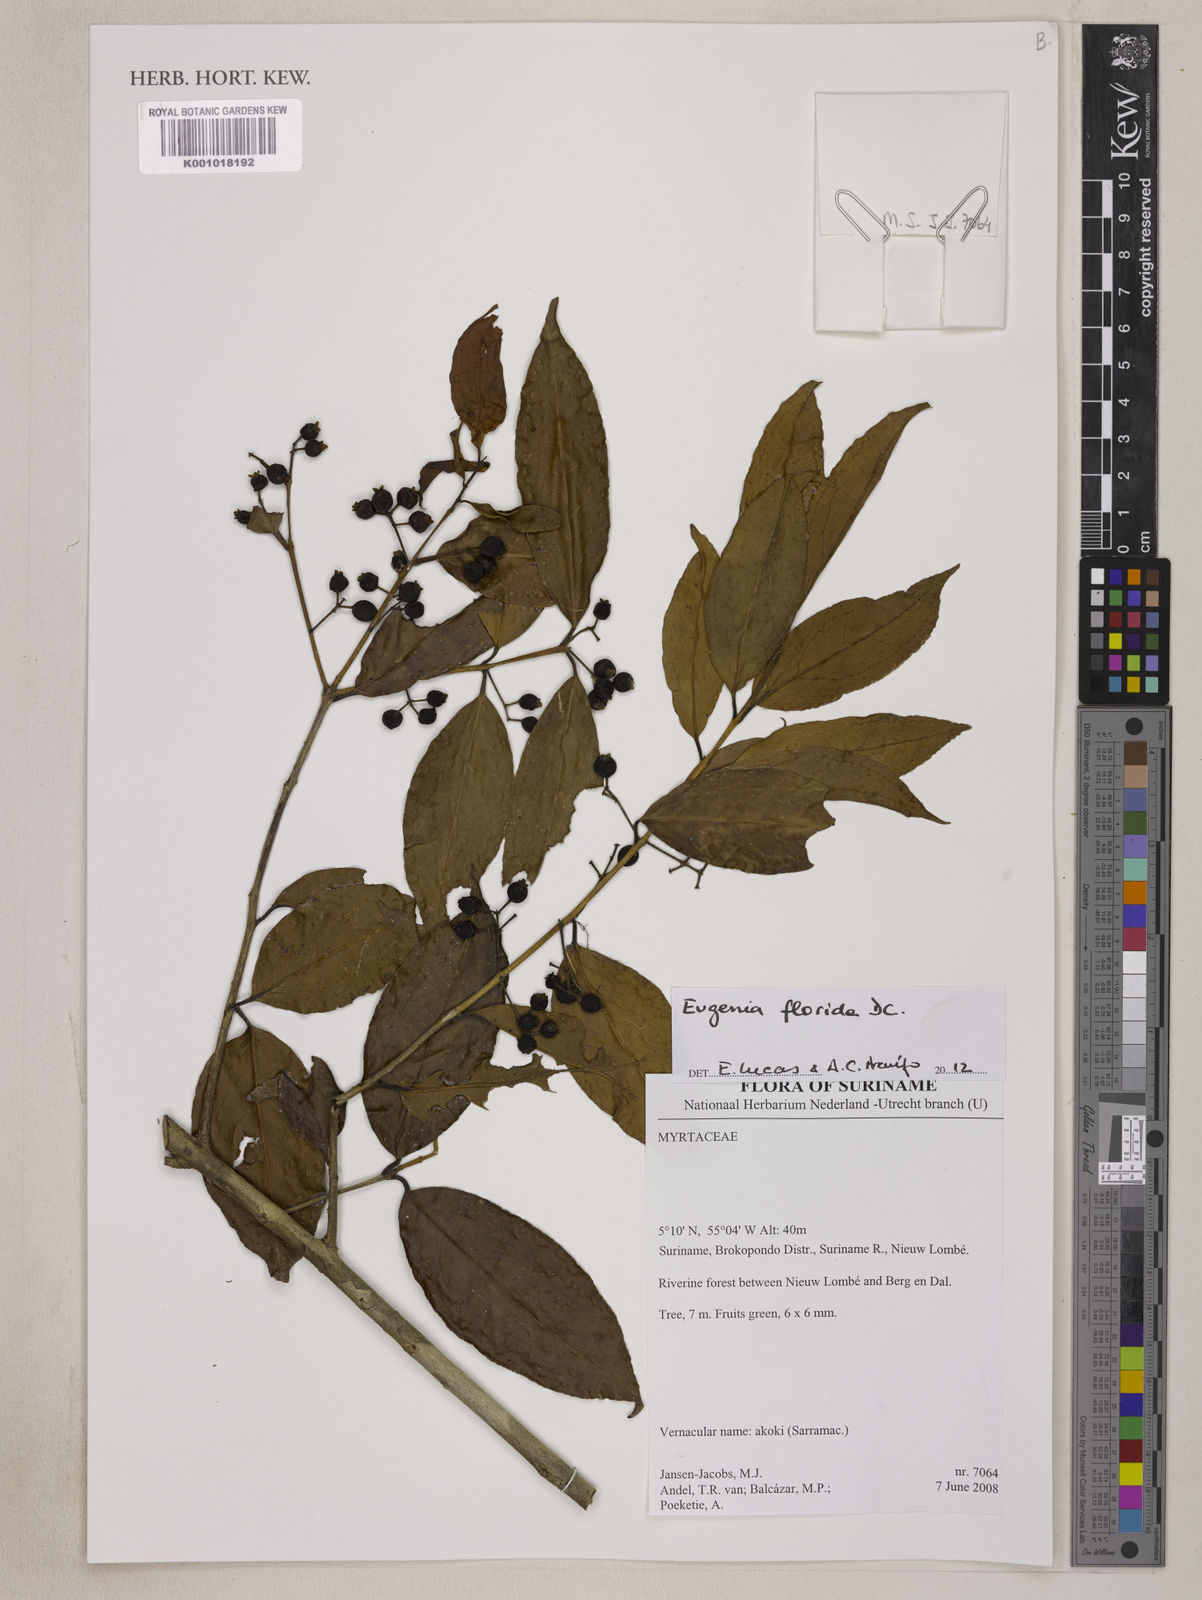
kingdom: Plantae
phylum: Tracheophyta
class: Magnoliopsida
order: Myrtales
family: Myrtaceae
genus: Eugenia
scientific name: Eugenia florida
